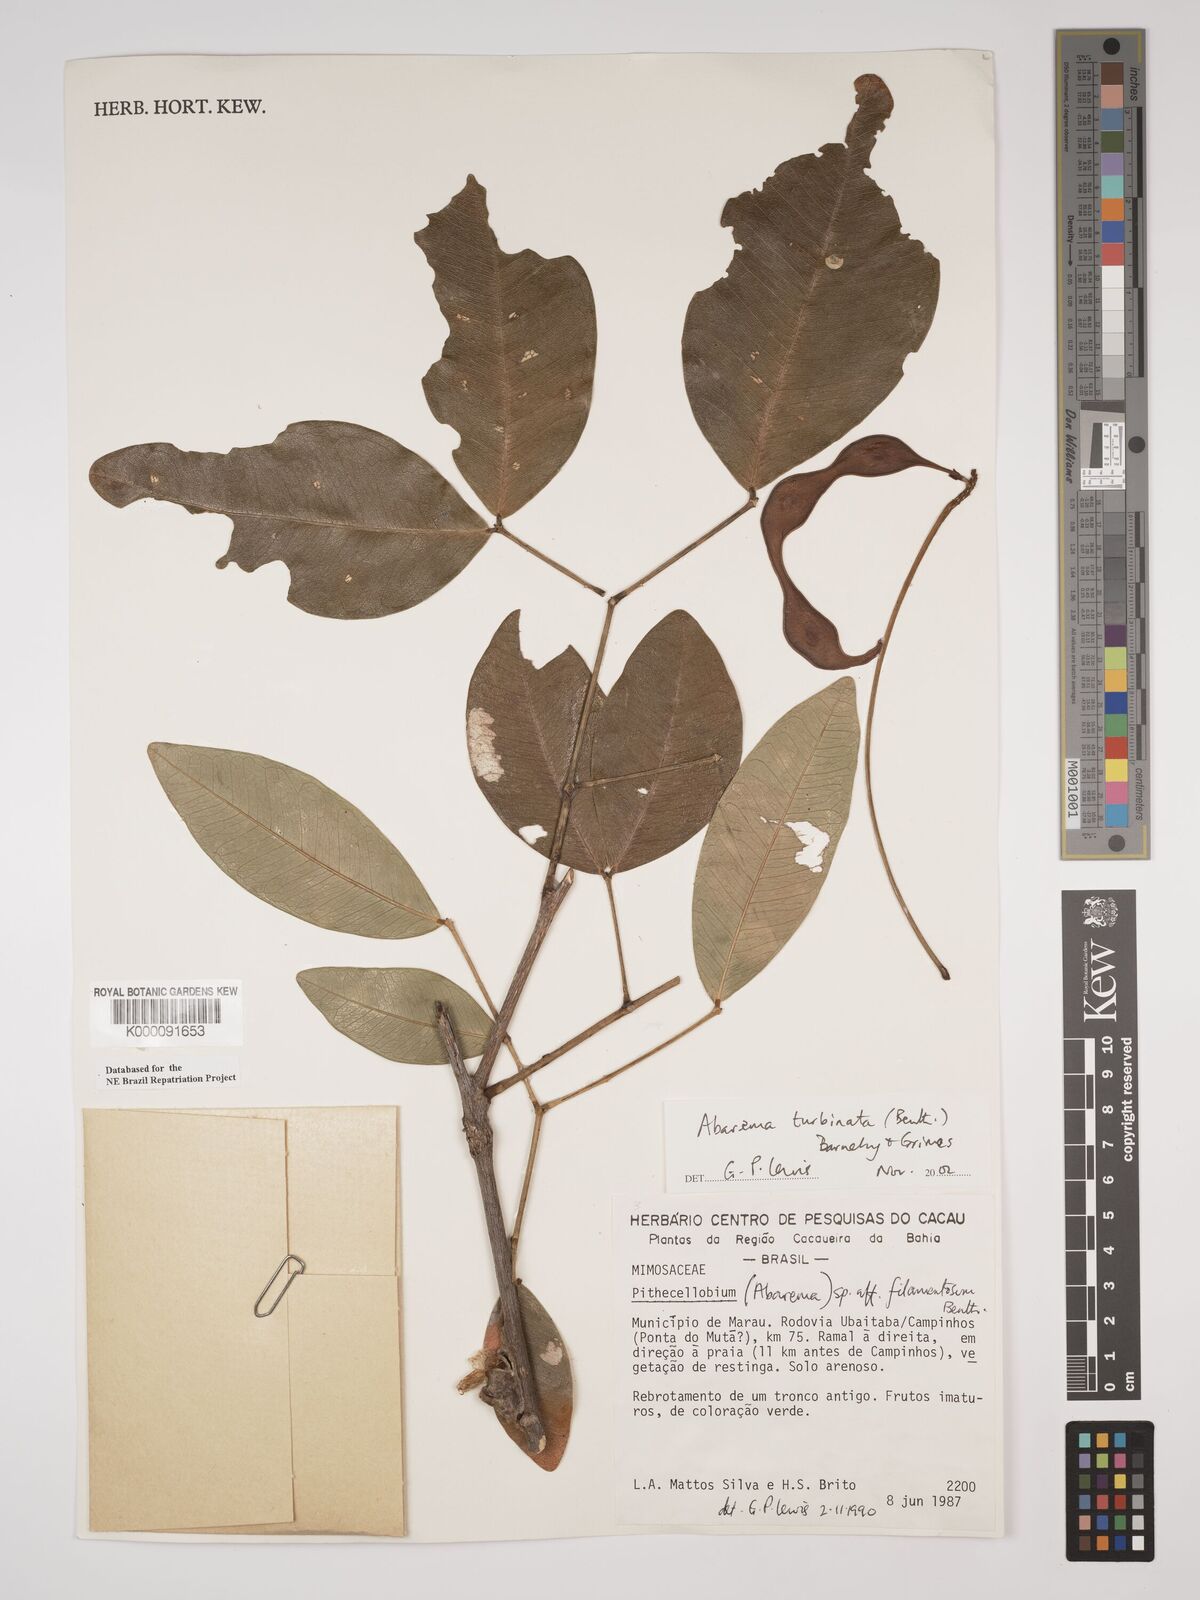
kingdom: Plantae
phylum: Tracheophyta
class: Magnoliopsida
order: Fabales
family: Fabaceae
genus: Jupunba
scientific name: Jupunba turbinata
